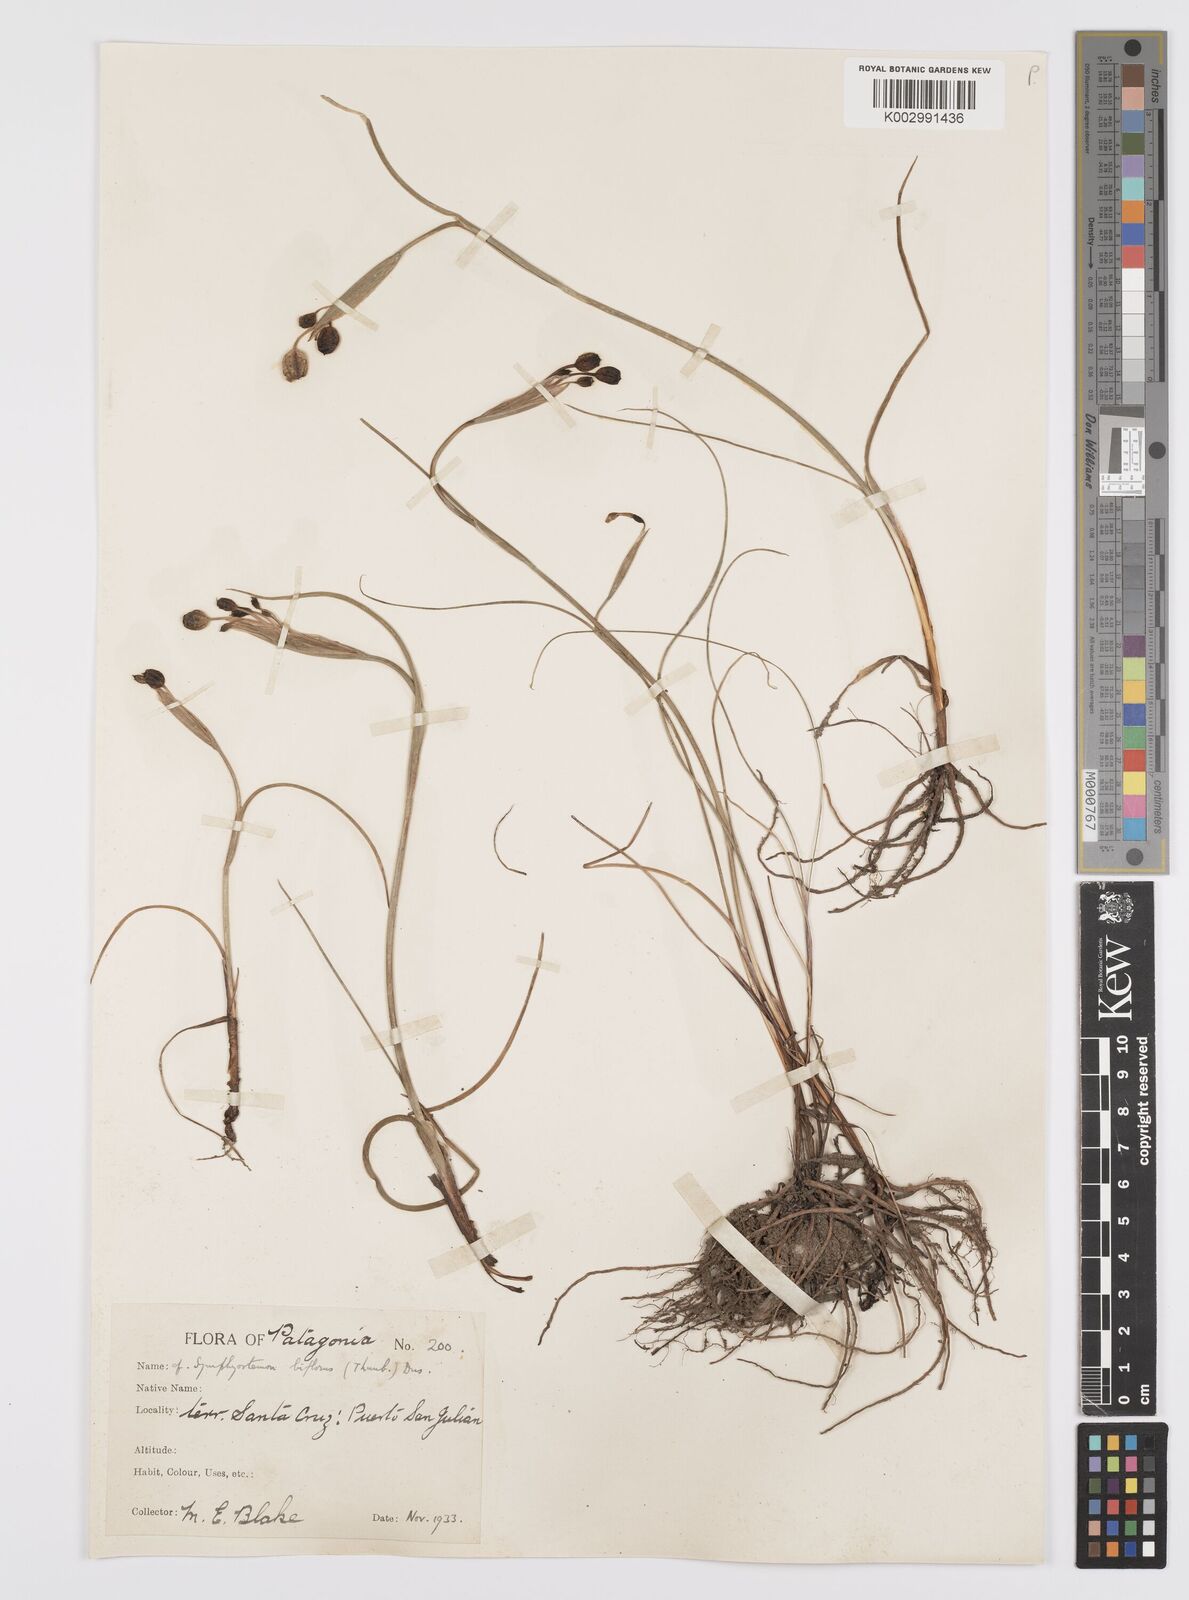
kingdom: Plantae
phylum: Tracheophyta
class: Liliopsida
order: Asparagales
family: Iridaceae
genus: Olsynium
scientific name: Olsynium biflorum
